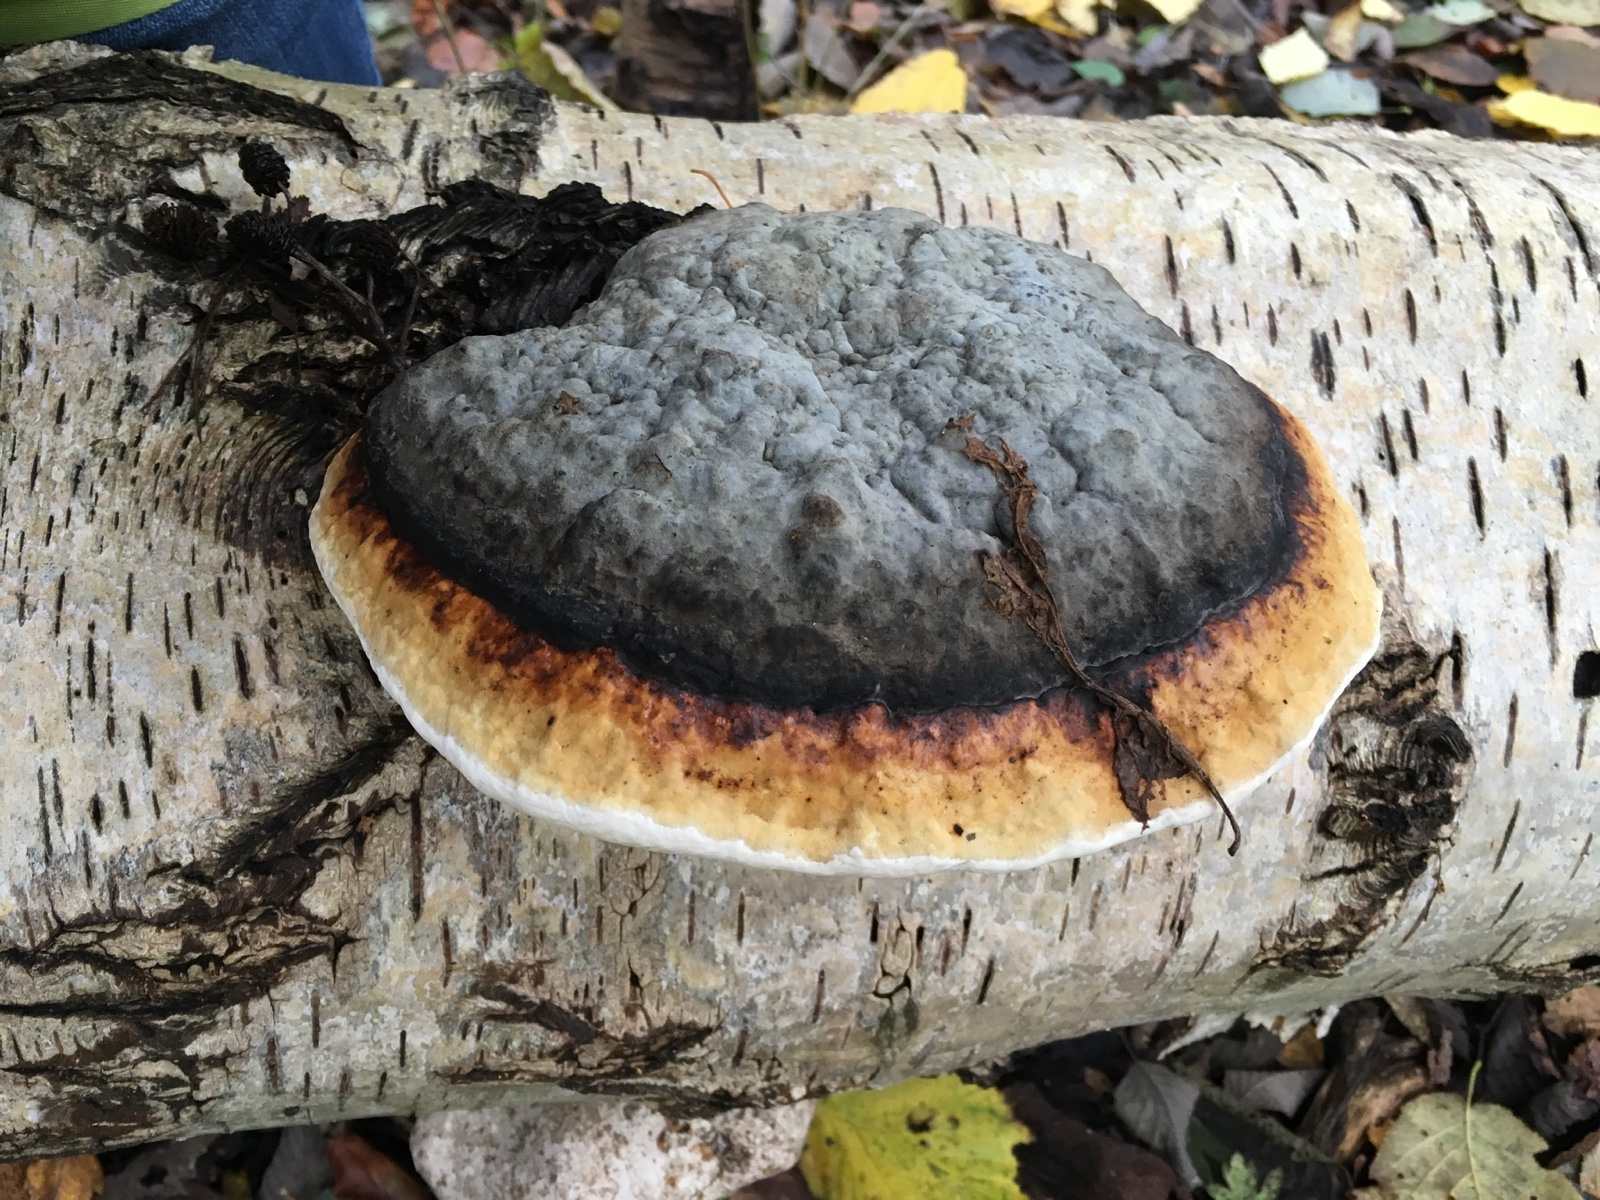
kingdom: Fungi
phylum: Basidiomycota
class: Agaricomycetes
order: Polyporales
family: Fomitopsidaceae
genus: Fomitopsis
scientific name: Fomitopsis pinicola
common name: randbæltet hovporesvamp
